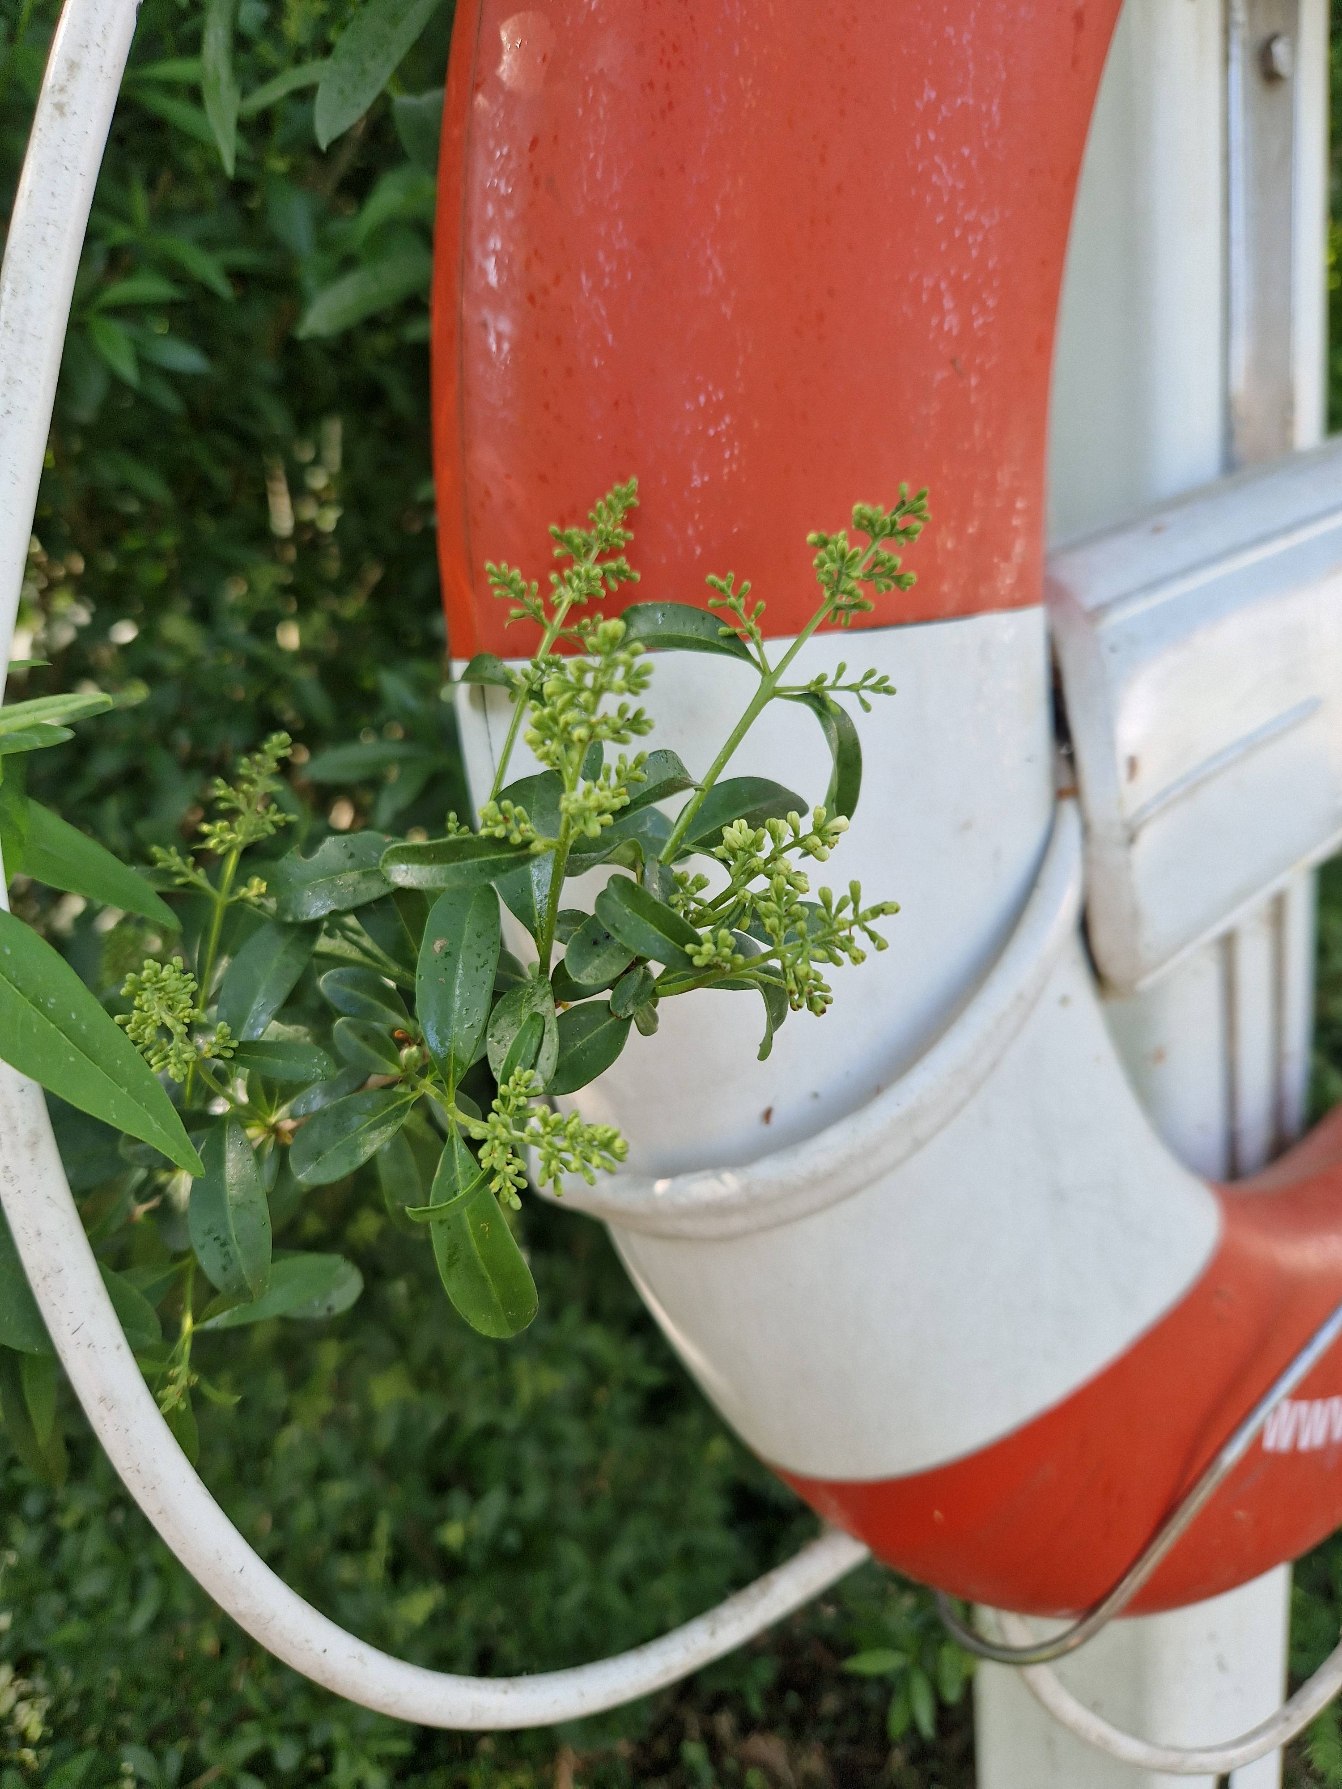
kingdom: Plantae
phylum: Tracheophyta
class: Magnoliopsida
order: Lamiales
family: Oleaceae
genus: Ligustrum
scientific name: Ligustrum vulgare
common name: Liguster
